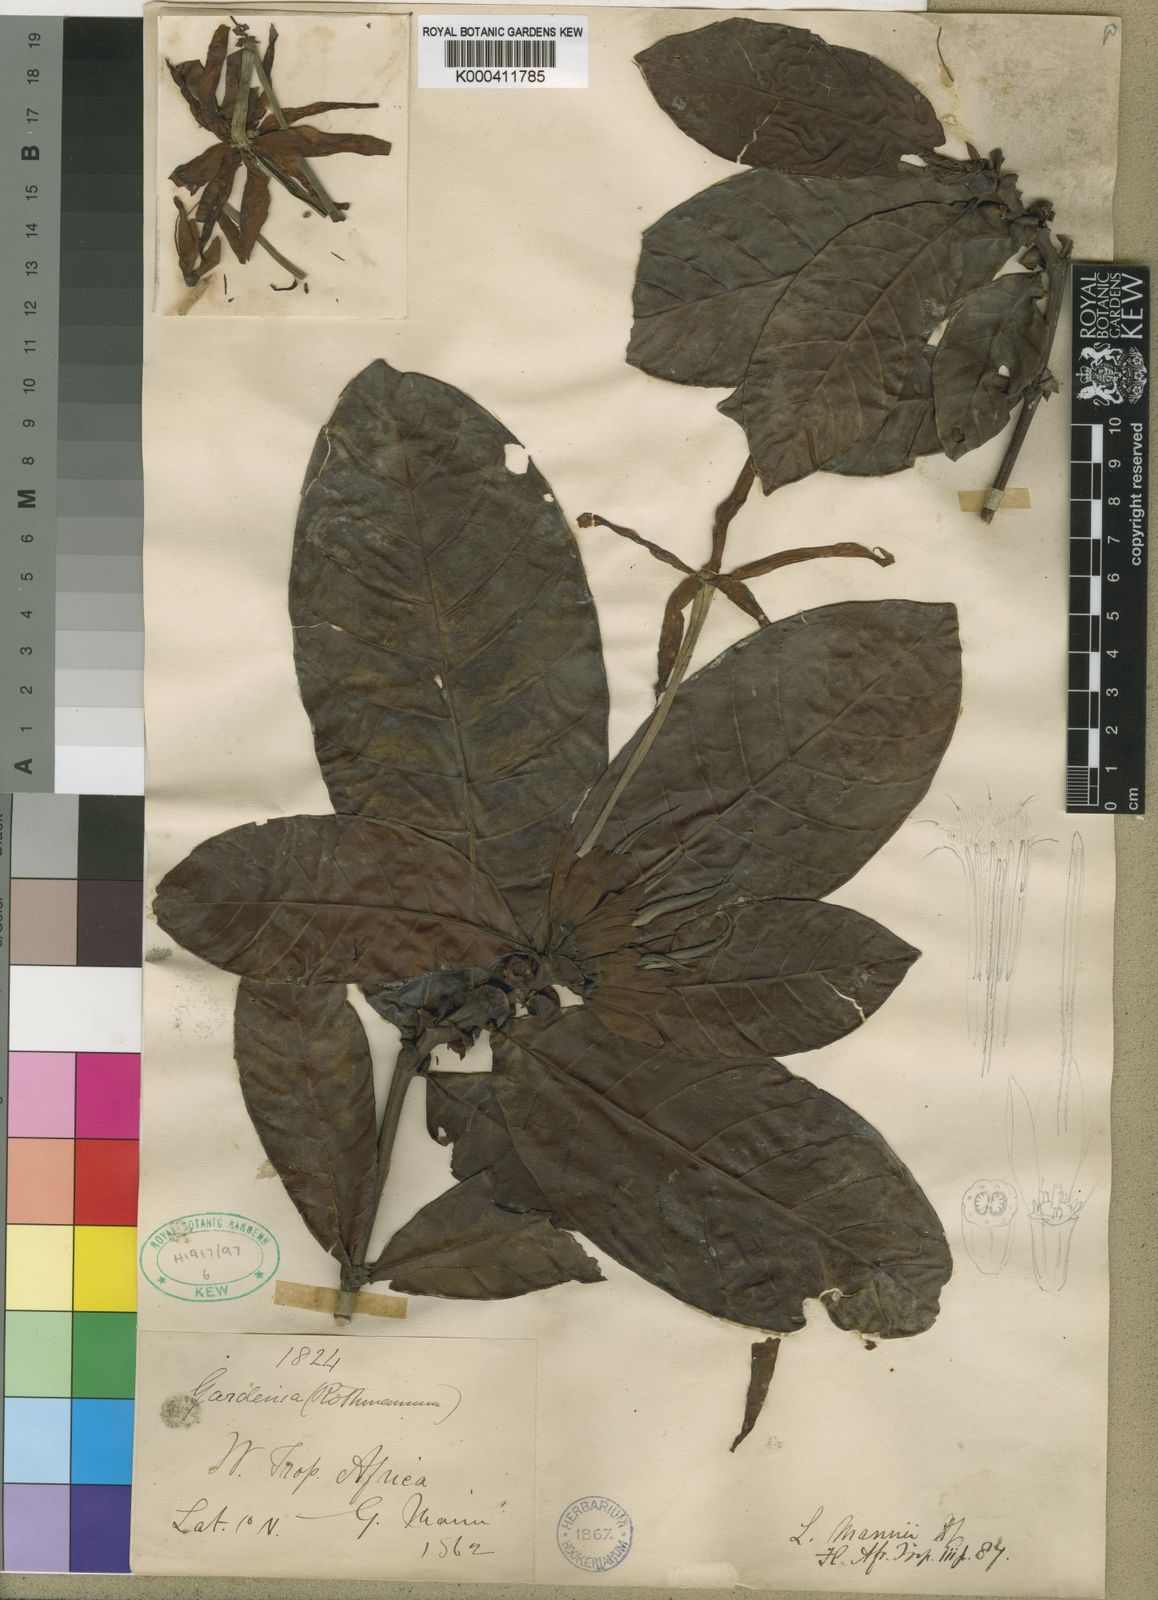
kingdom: Plantae
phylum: Tracheophyta
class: Magnoliopsida
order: Gentianales
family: Rubiaceae
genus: Leptactina
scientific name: Leptactina mannii
